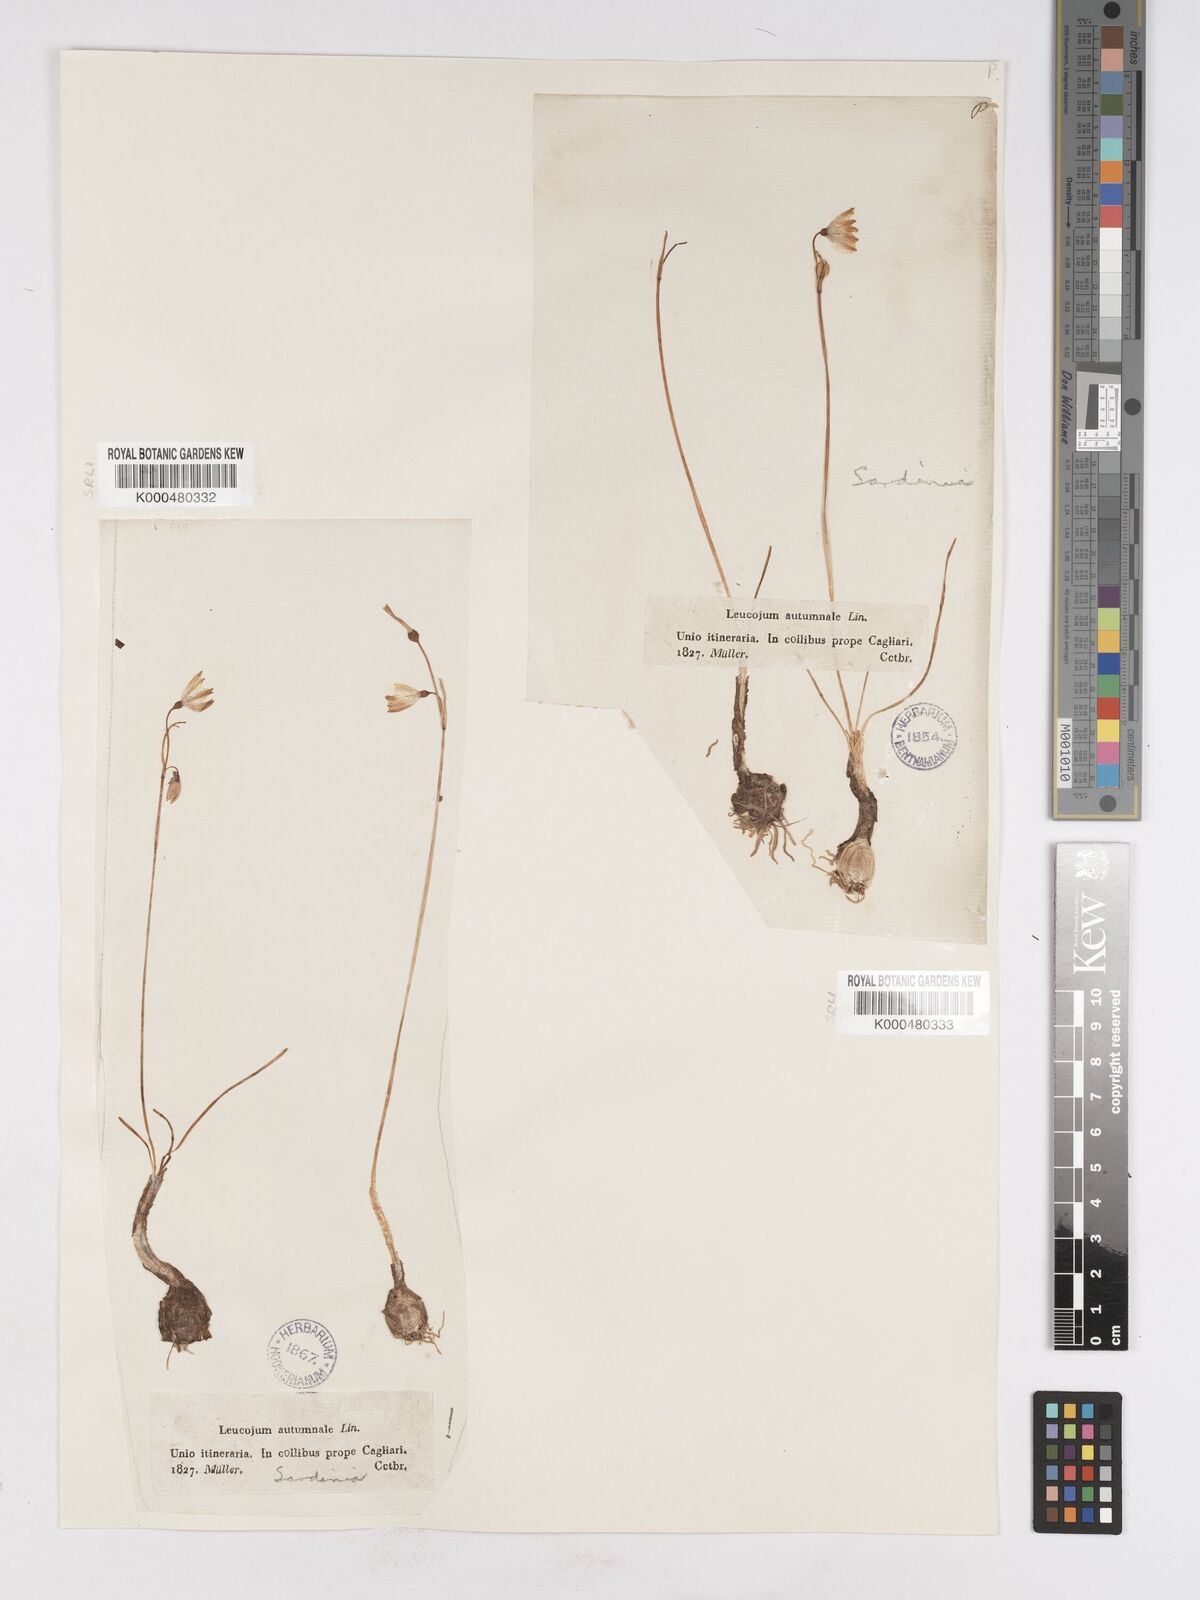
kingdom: Plantae
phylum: Tracheophyta
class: Liliopsida
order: Asparagales
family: Amaryllidaceae
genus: Acis
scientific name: Acis autumnalis
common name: Autumn snowflake
